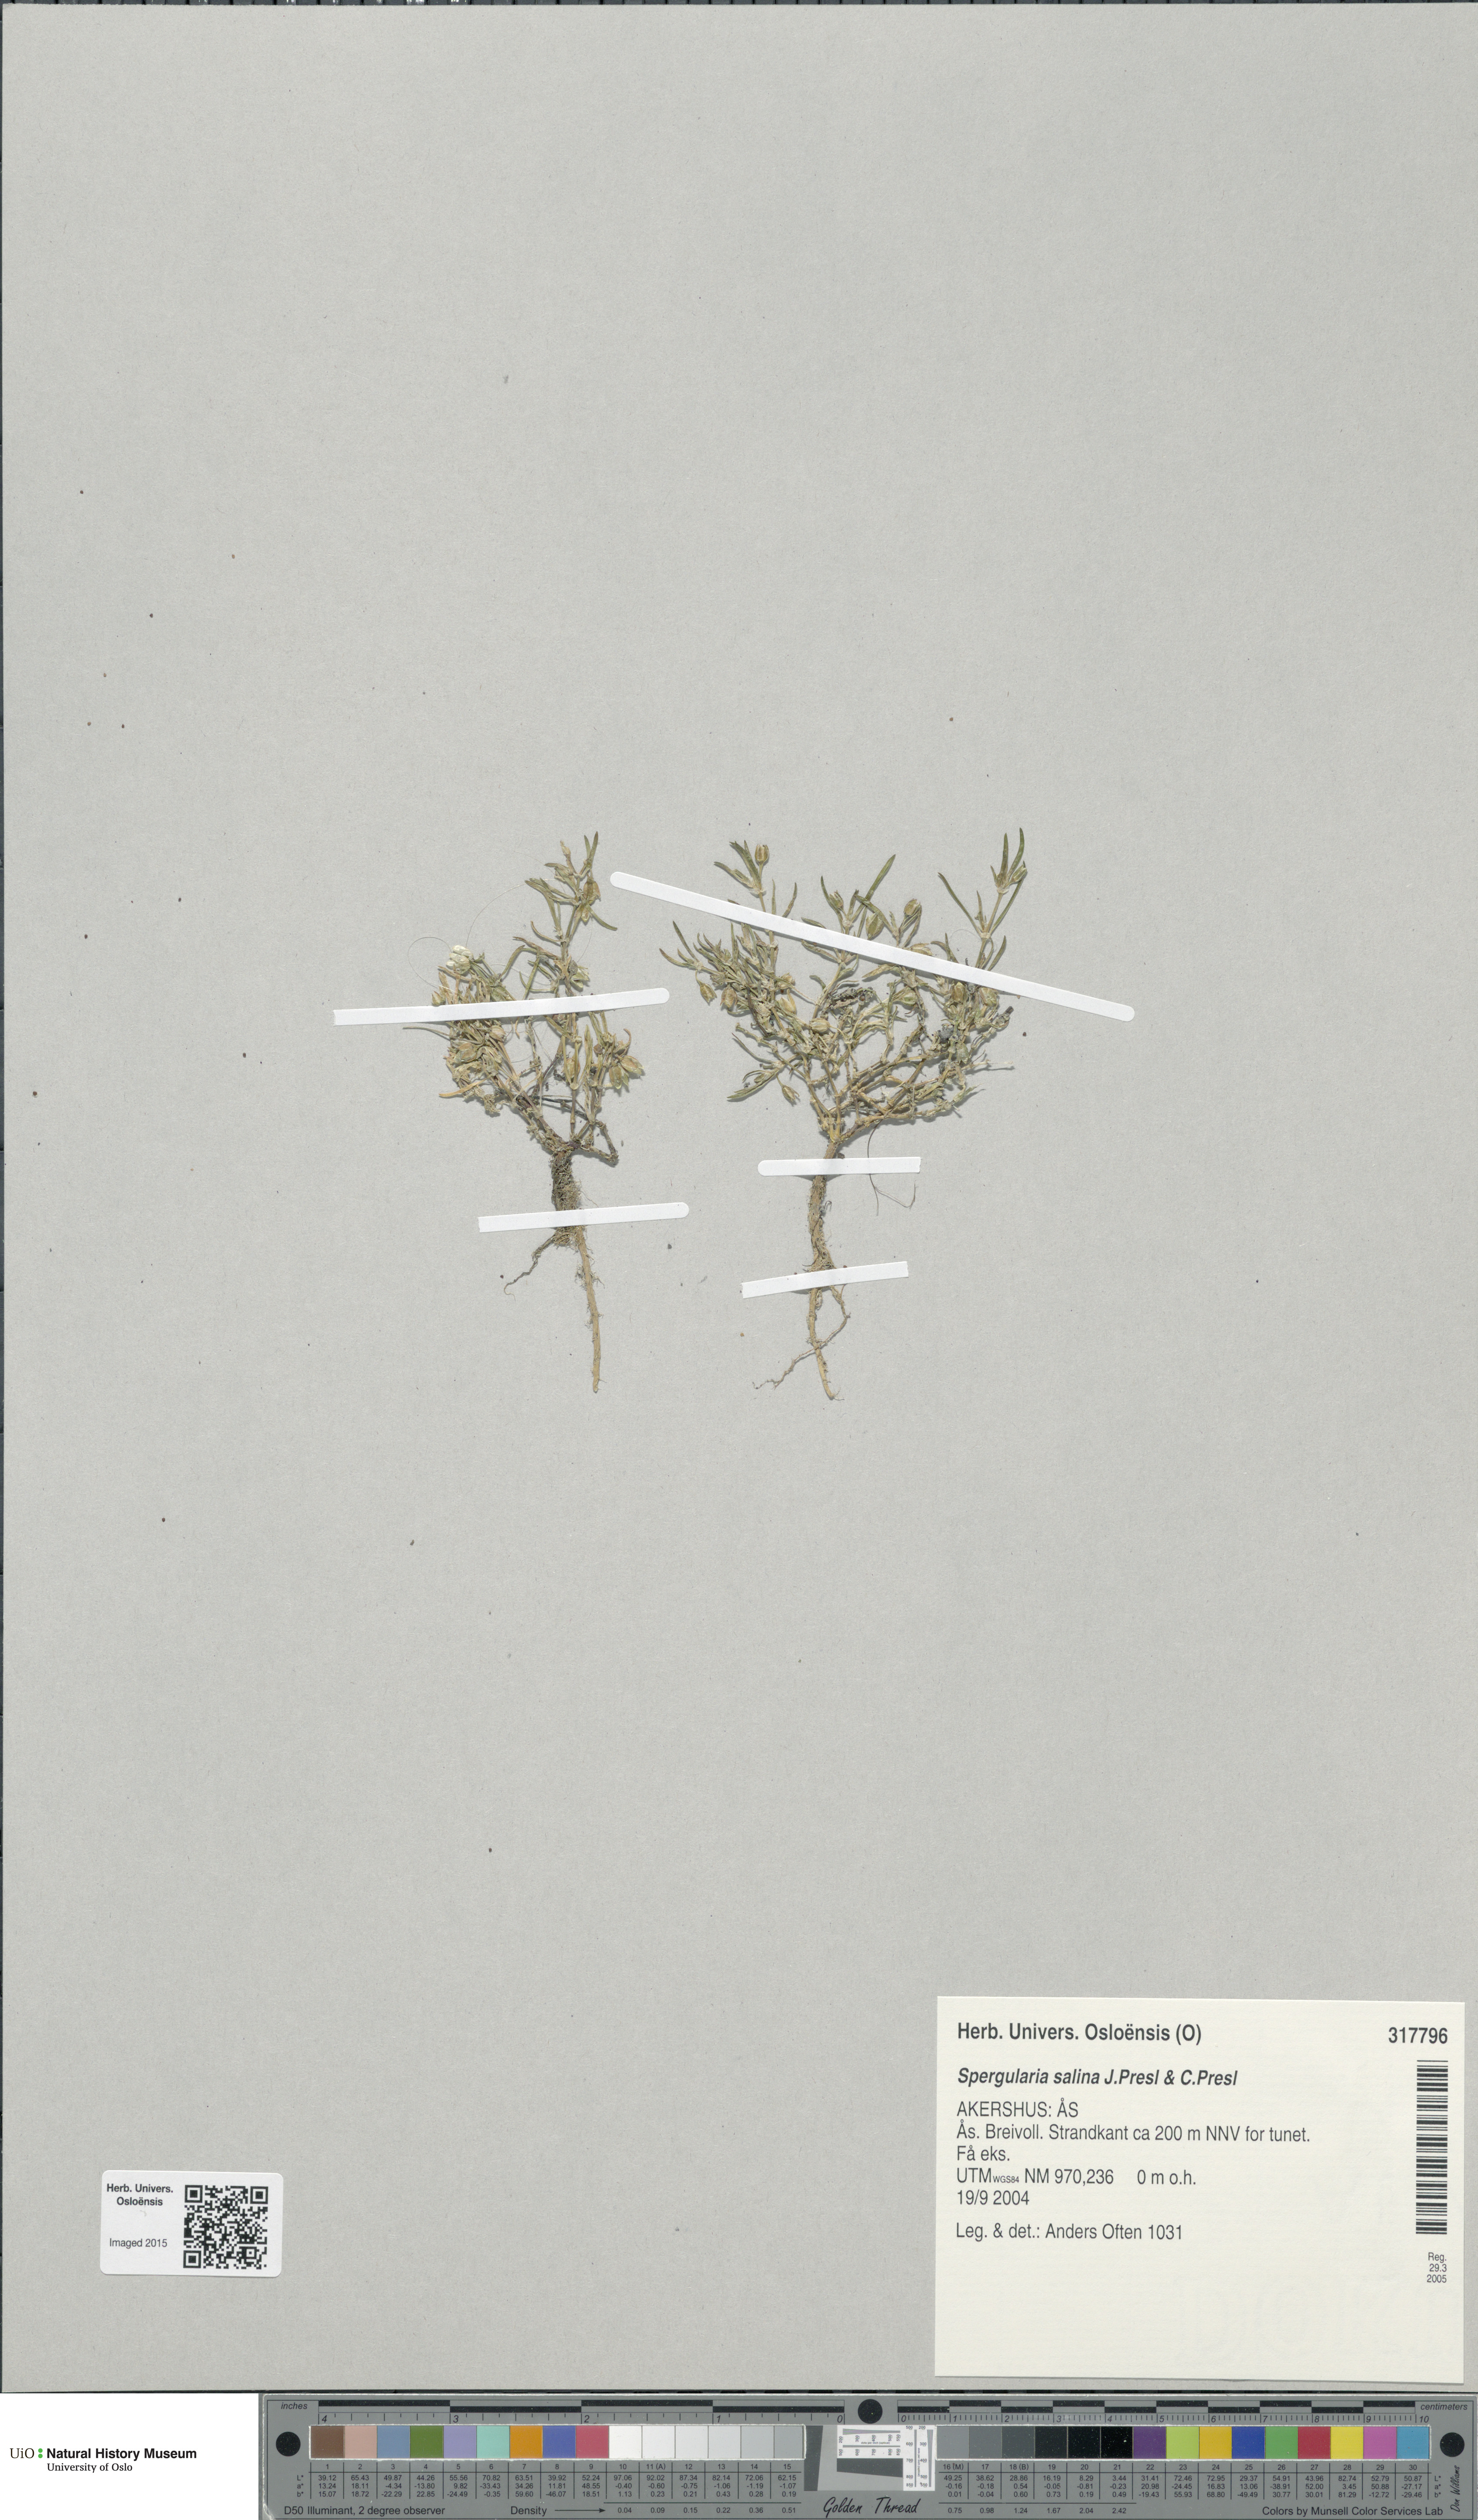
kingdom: Plantae
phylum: Tracheophyta
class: Magnoliopsida
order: Caryophyllales
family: Caryophyllaceae
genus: Spergularia
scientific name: Spergularia marina
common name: Lesser sea-spurrey
